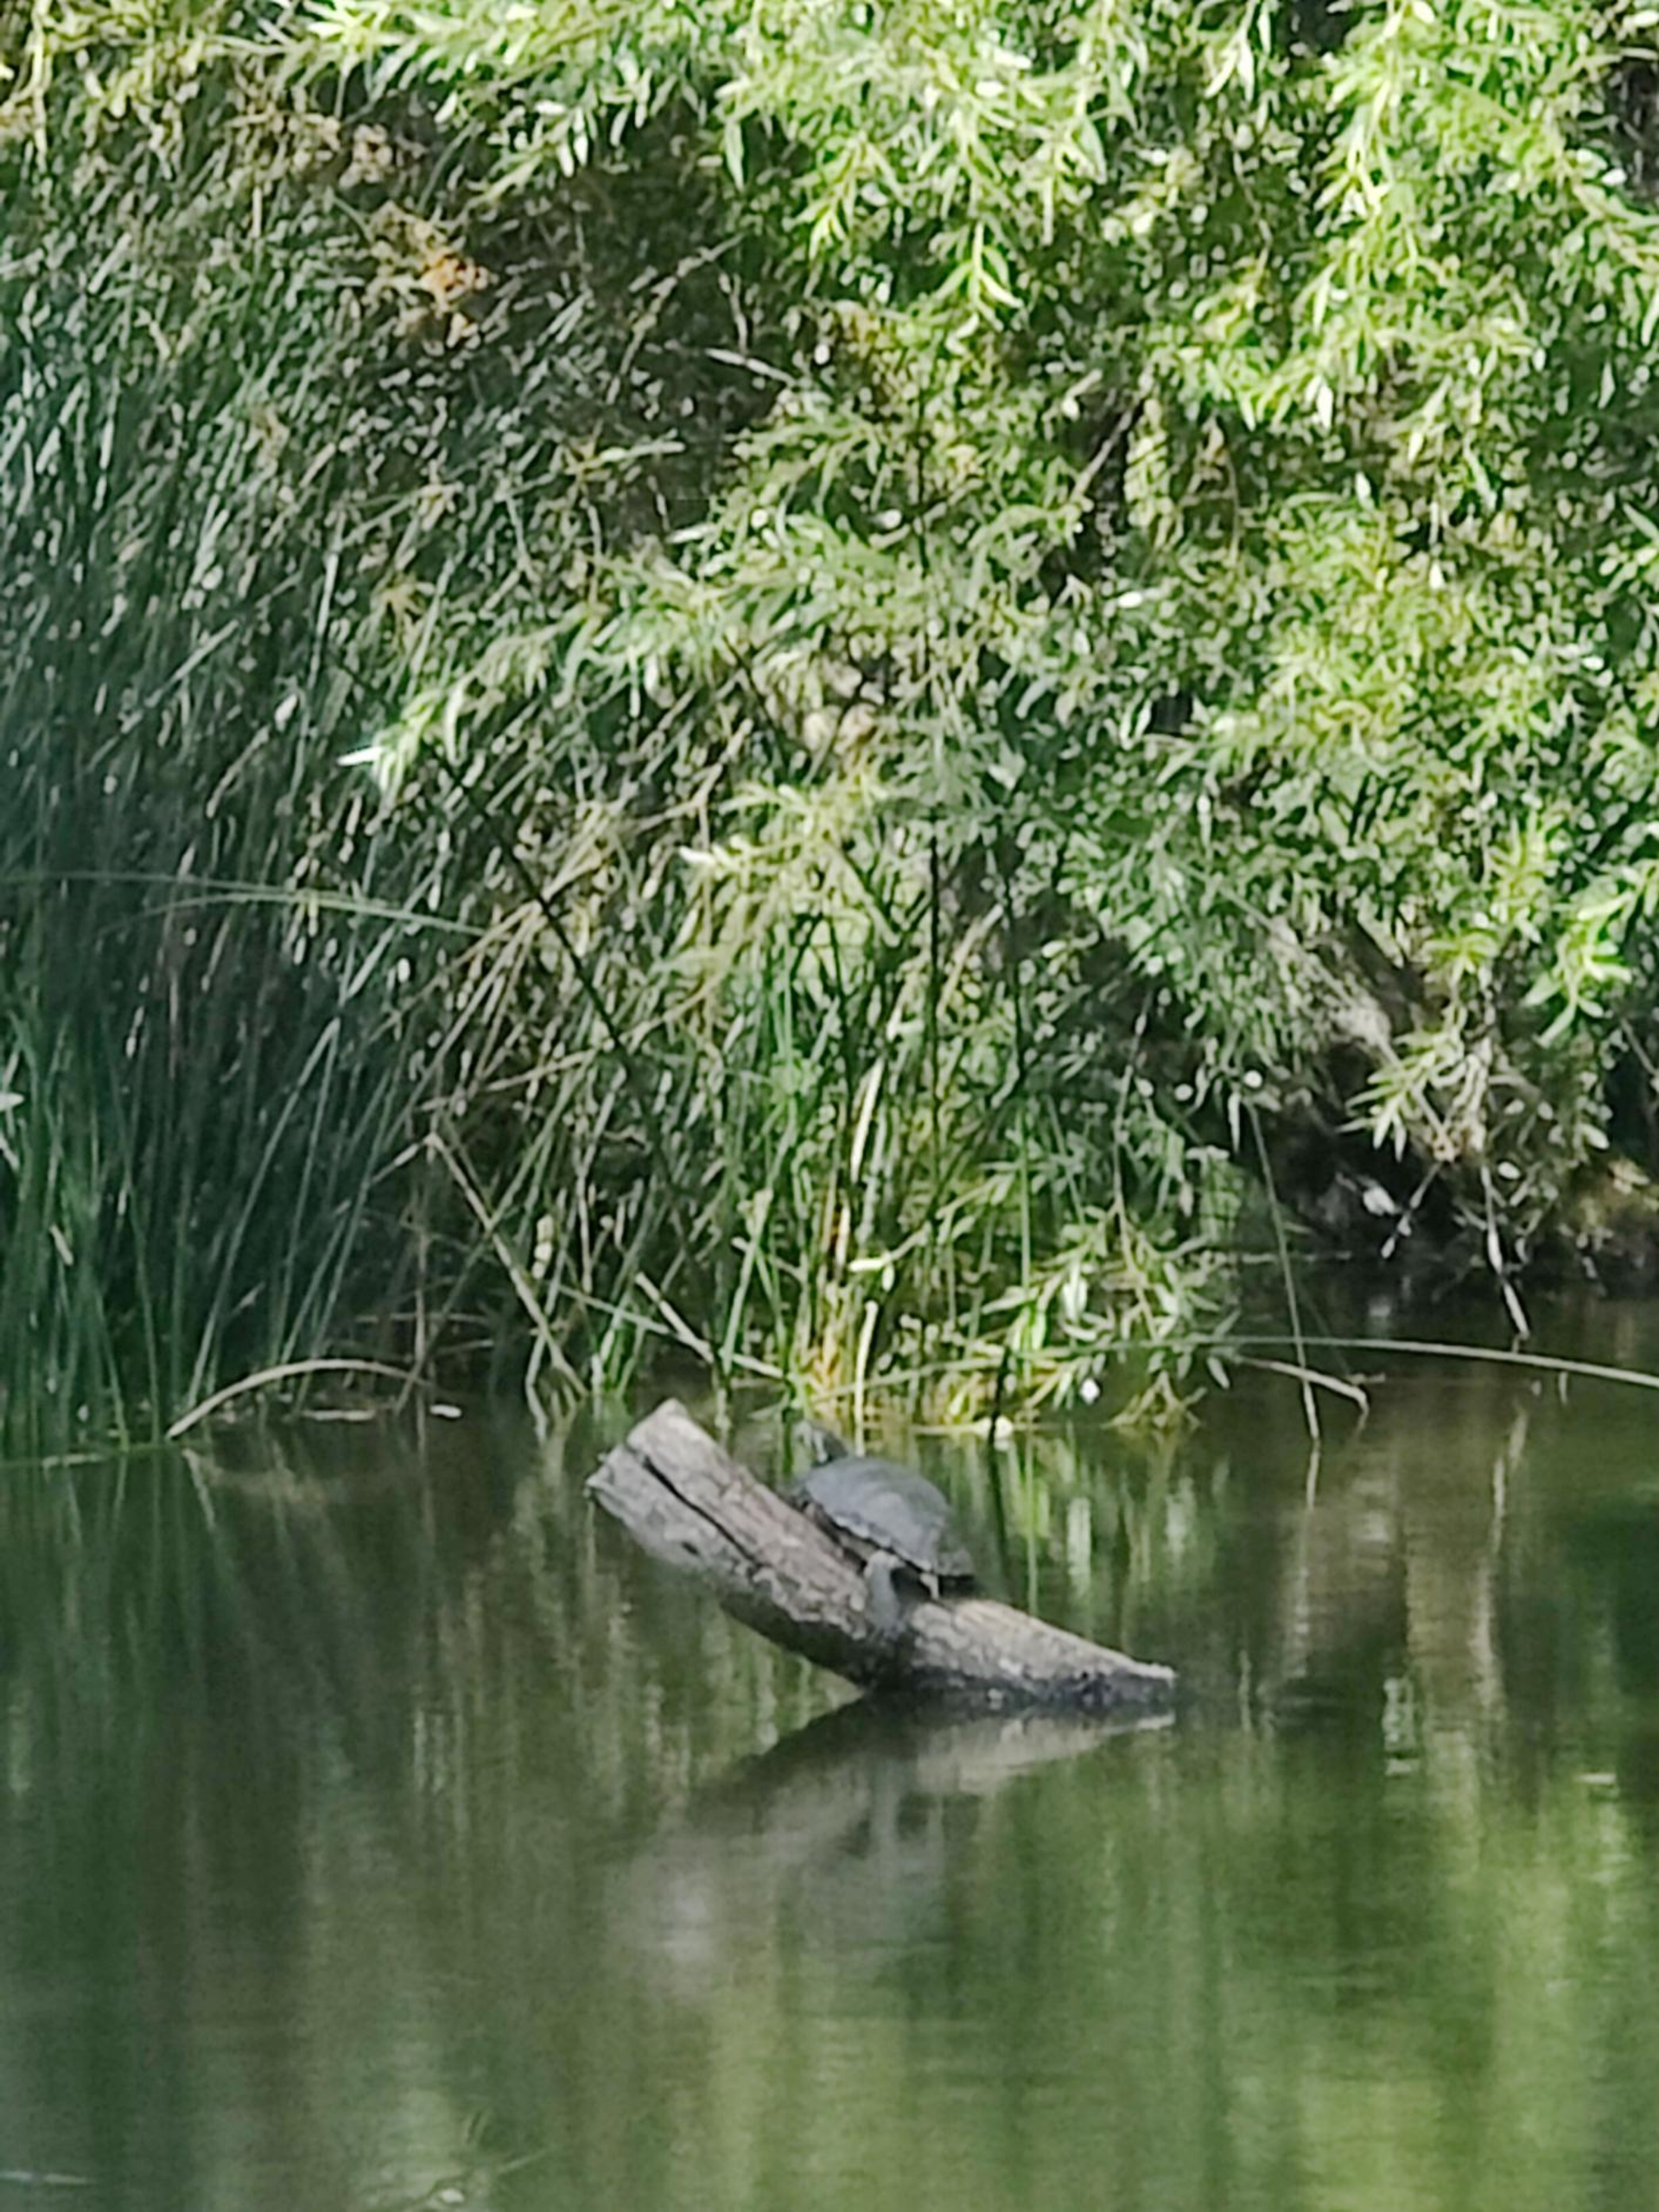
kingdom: Animalia
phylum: Chordata
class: Testudines
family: Emydidae
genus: Trachemys
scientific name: Trachemys scripta
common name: Nordamerikansk terrapin
